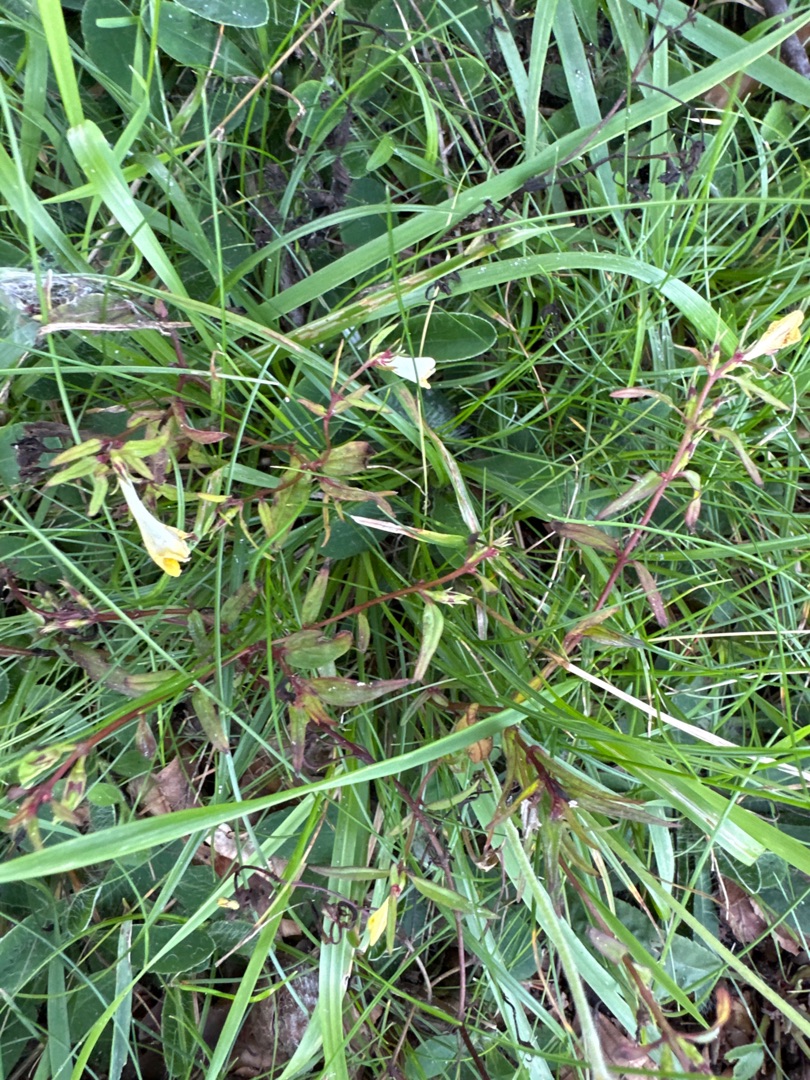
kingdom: Plantae
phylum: Tracheophyta
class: Magnoliopsida
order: Lamiales
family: Orobanchaceae
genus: Melampyrum
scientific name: Melampyrum pratense
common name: Almindelig kohvede
